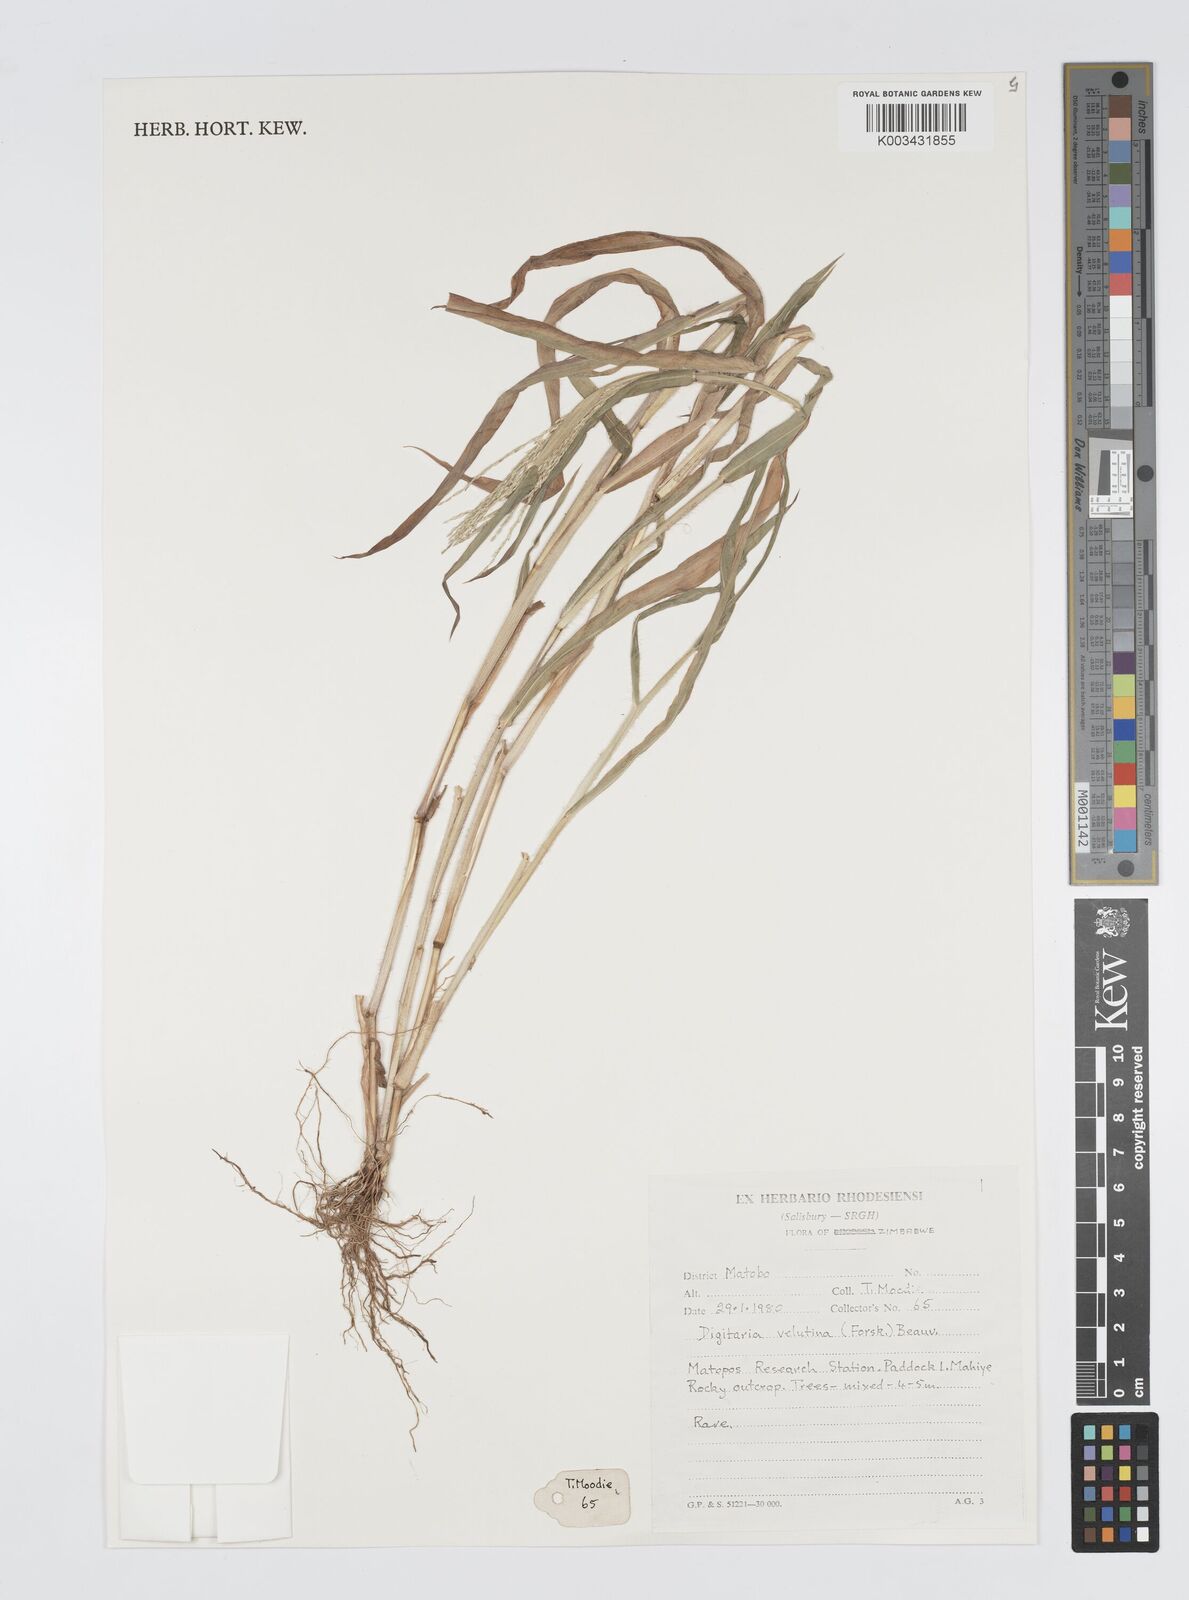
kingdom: Plantae
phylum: Tracheophyta
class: Liliopsida
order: Poales
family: Poaceae
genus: Digitaria
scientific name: Digitaria velutina
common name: Long-plume finger grass
